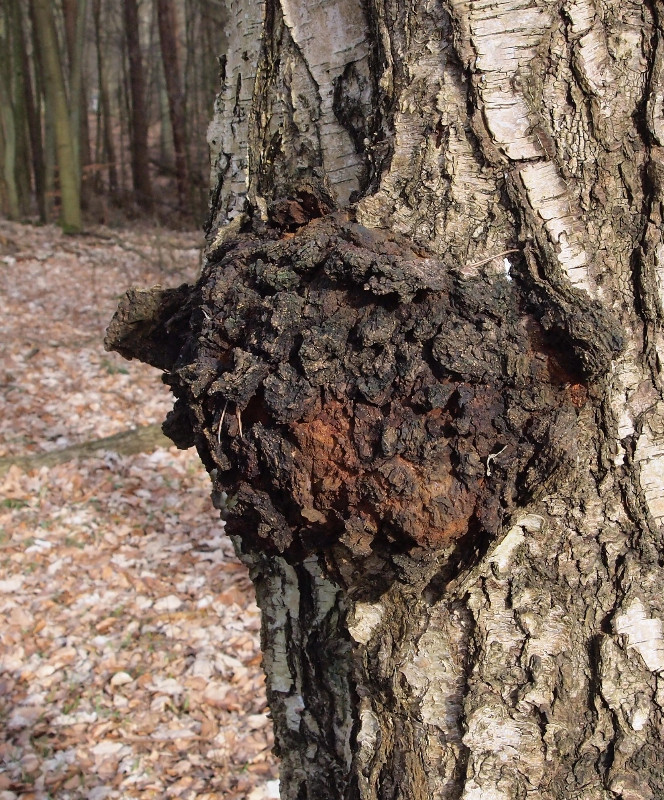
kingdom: Fungi
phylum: Basidiomycota
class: Agaricomycetes
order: Hymenochaetales
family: Hymenochaetaceae
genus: Inonotus
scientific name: Inonotus obliquus
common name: birke-spejlporesvamp
